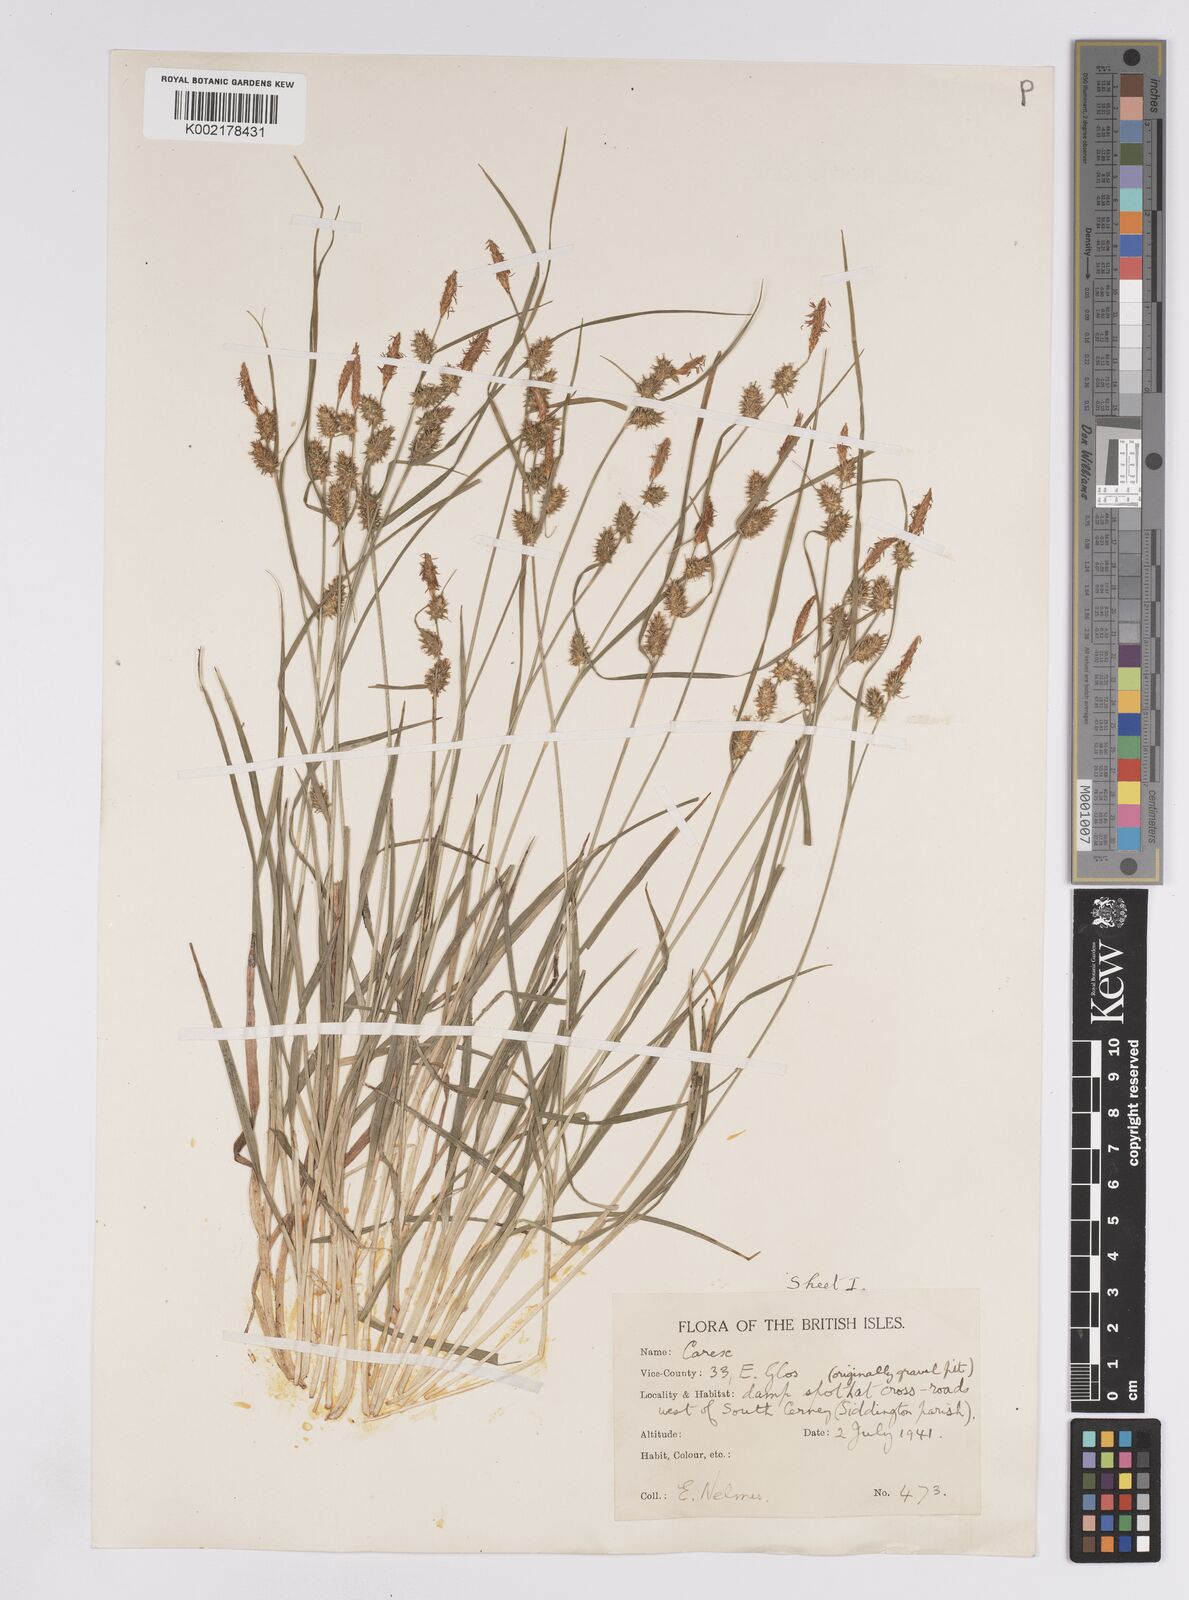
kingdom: Plantae
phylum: Tracheophyta
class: Liliopsida
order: Poales
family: Cyperaceae
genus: Carex
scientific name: Carex lepidocarpa
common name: Long-stalked yellow-sedge
